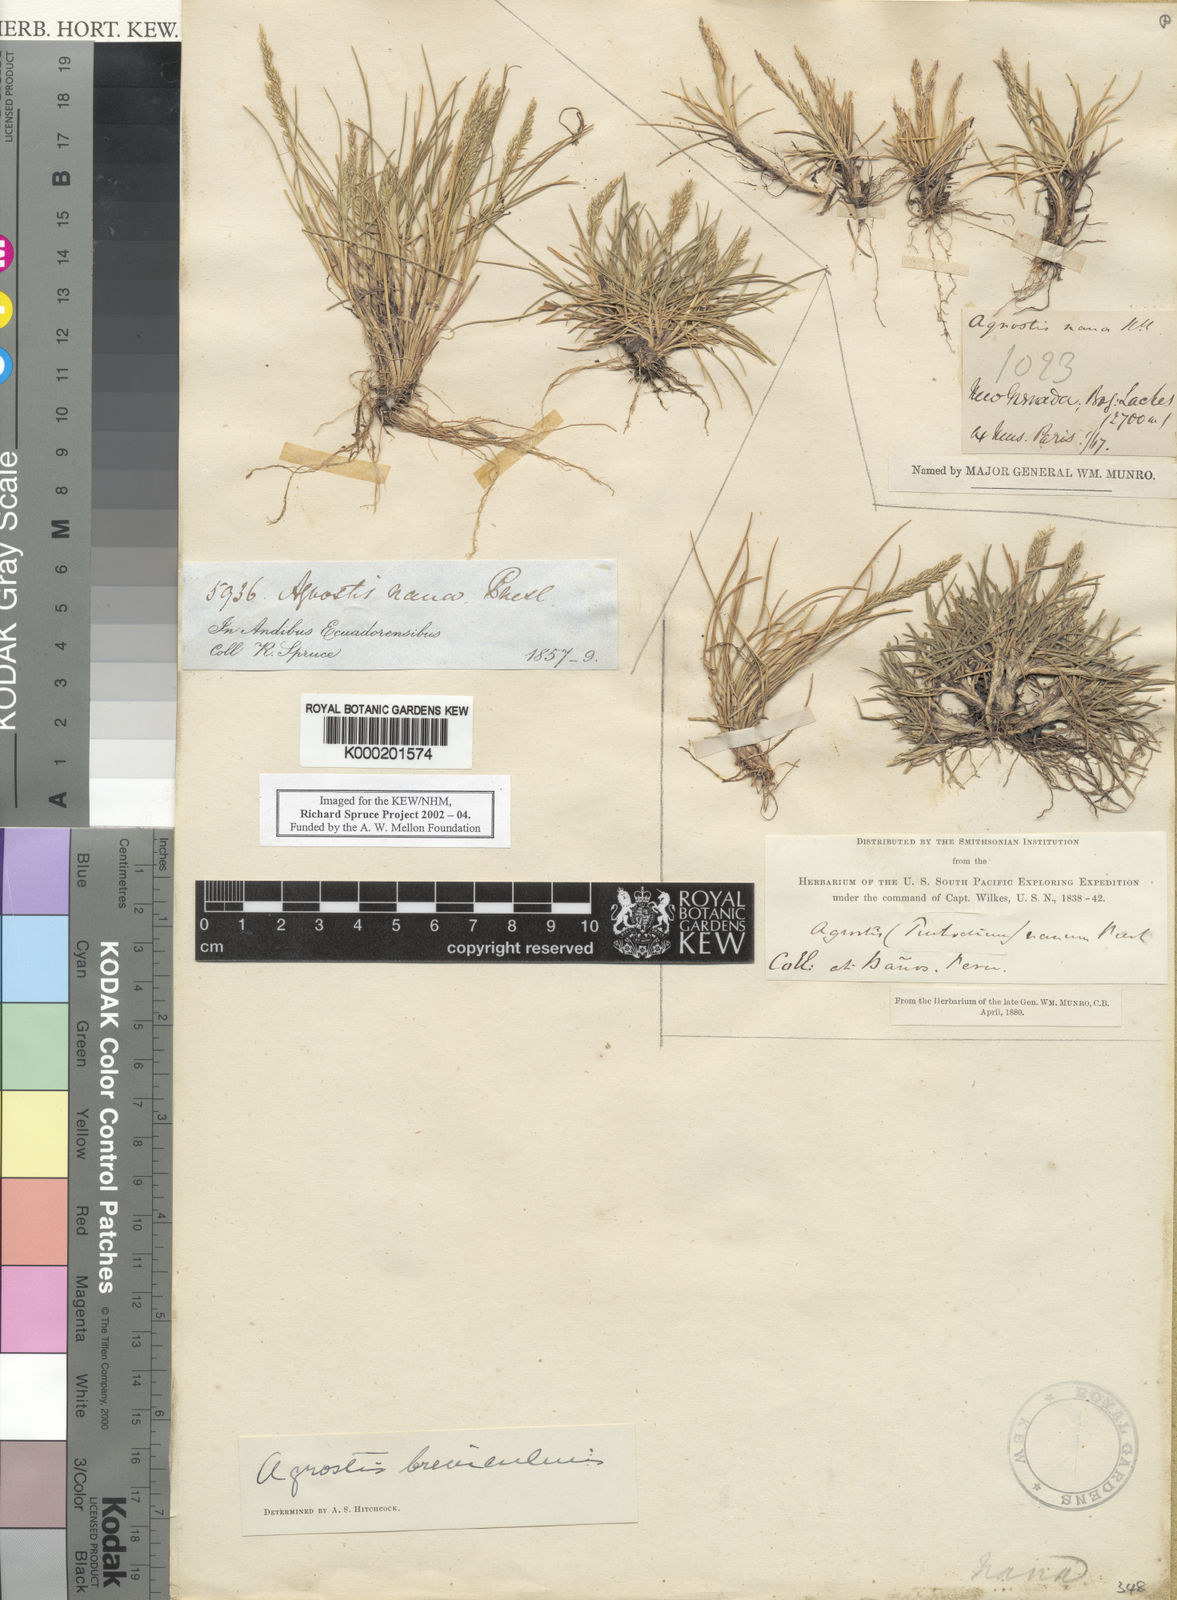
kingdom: Plantae
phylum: Tracheophyta
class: Liliopsida
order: Poales
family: Poaceae
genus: Agrostis
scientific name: Agrostis breviculmis
